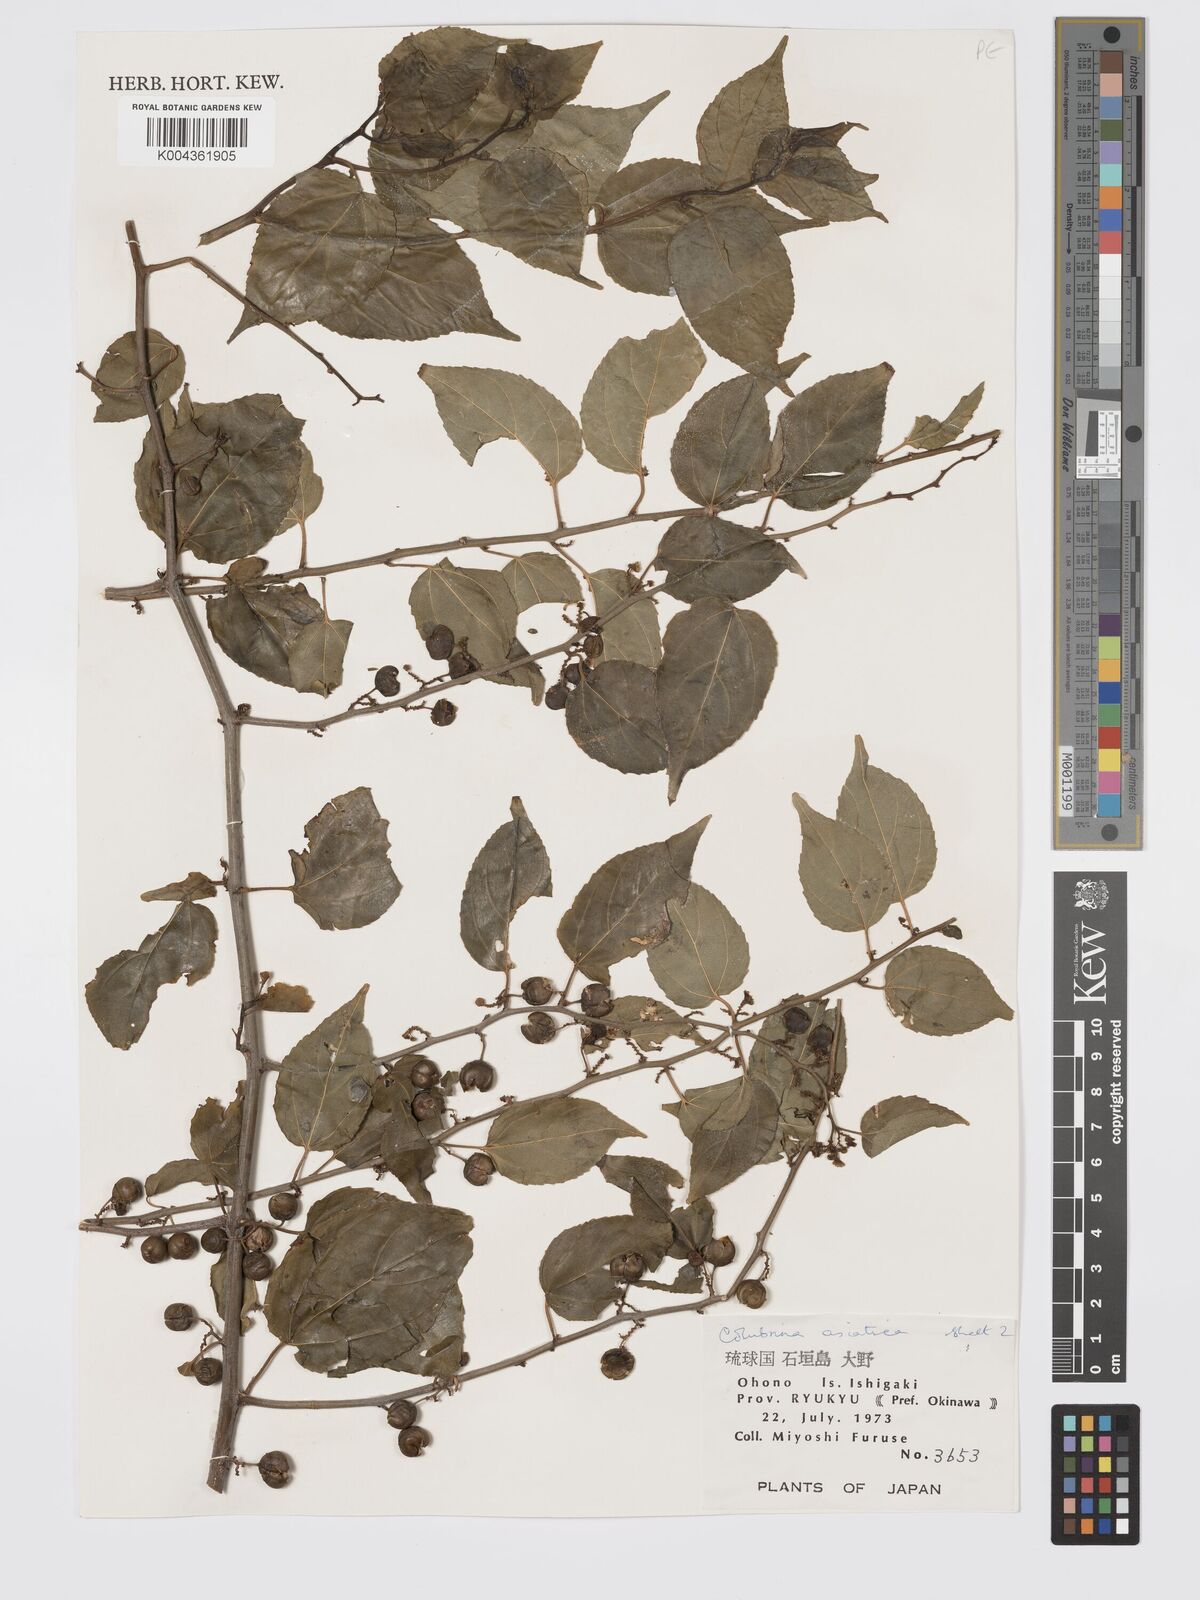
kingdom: Plantae
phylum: Tracheophyta
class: Magnoliopsida
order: Rosales
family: Rhamnaceae
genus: Colubrina
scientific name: Colubrina asiatica
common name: Asian nakedwood
